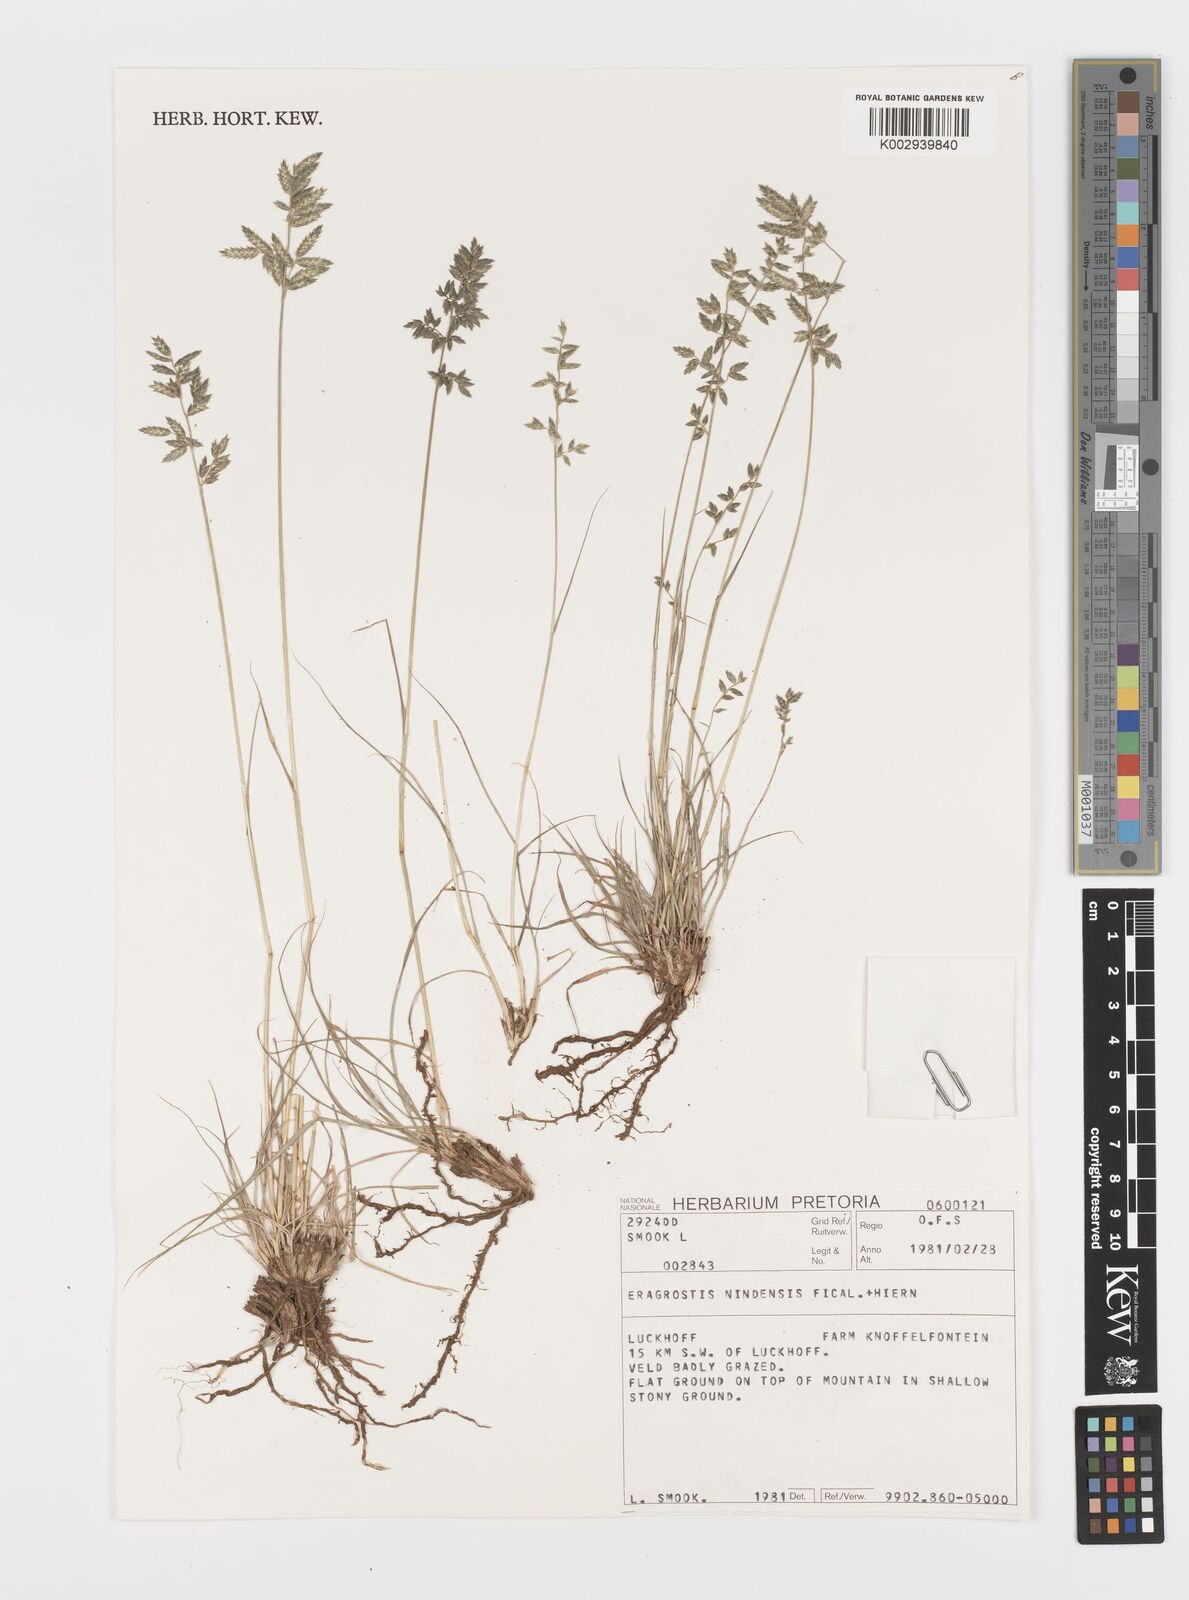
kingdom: Plantae
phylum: Tracheophyta
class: Liliopsida
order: Poales
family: Poaceae
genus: Eragrostis
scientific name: Eragrostis nindensis
